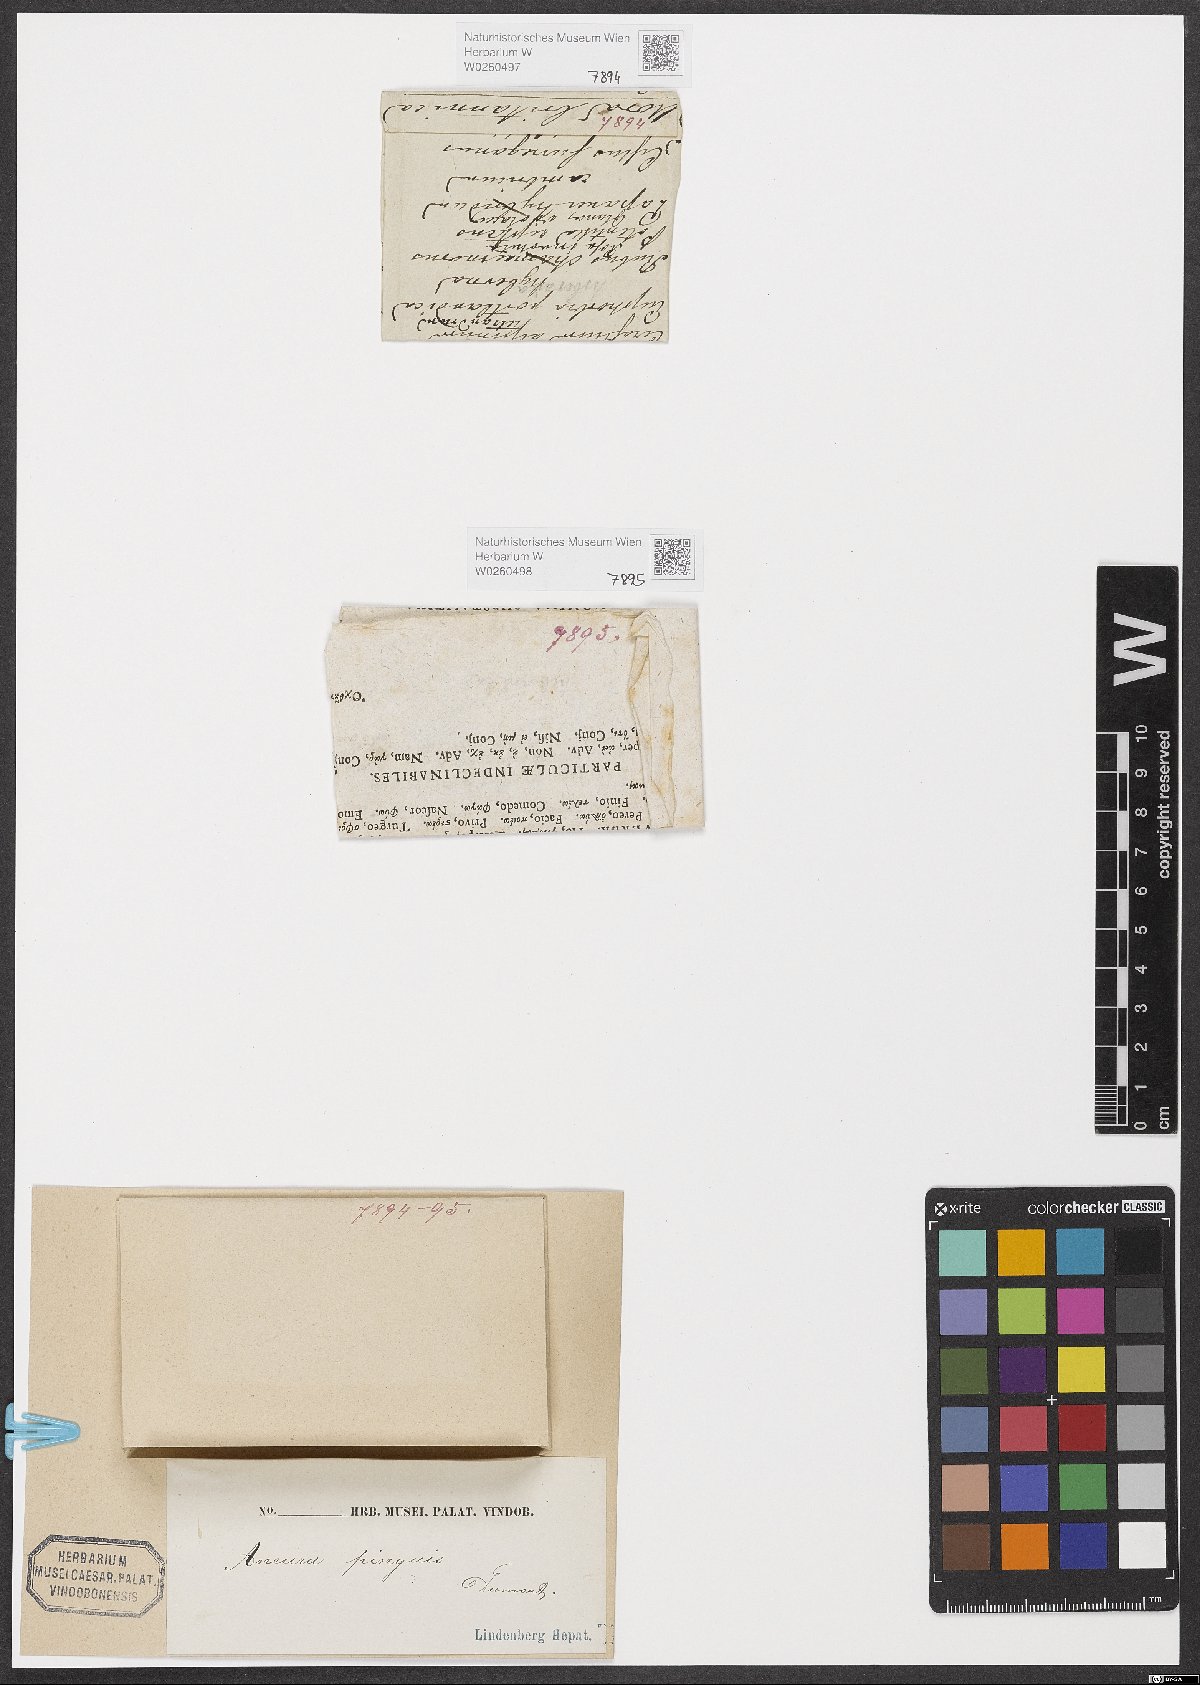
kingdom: Plantae
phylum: Marchantiophyta
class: Jungermanniopsida
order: Metzgeriales
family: Aneuraceae
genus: Aneura
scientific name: Aneura pinguis
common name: Common greasewort
